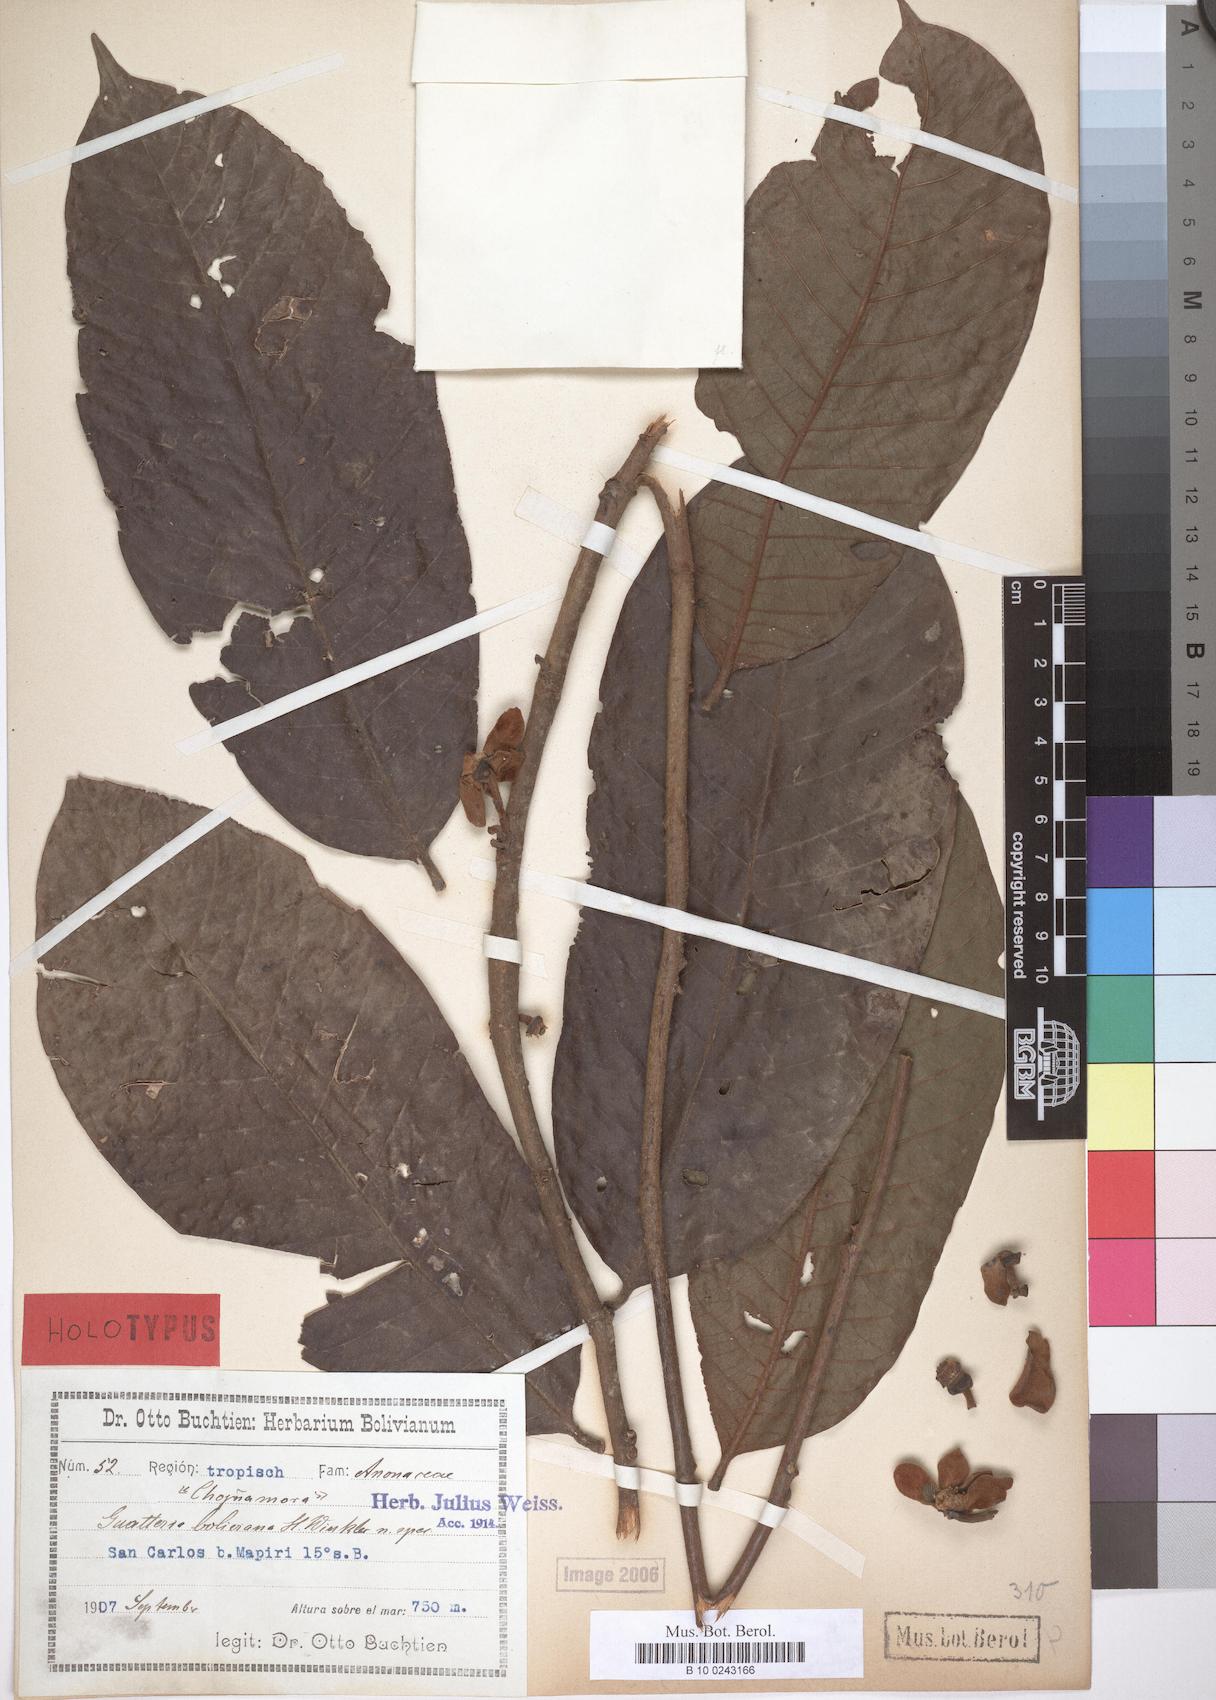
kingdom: Plantae
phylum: Tracheophyta
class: Magnoliopsida
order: Magnoliales
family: Annonaceae
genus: Guatteria
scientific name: Guatteria boliviana
